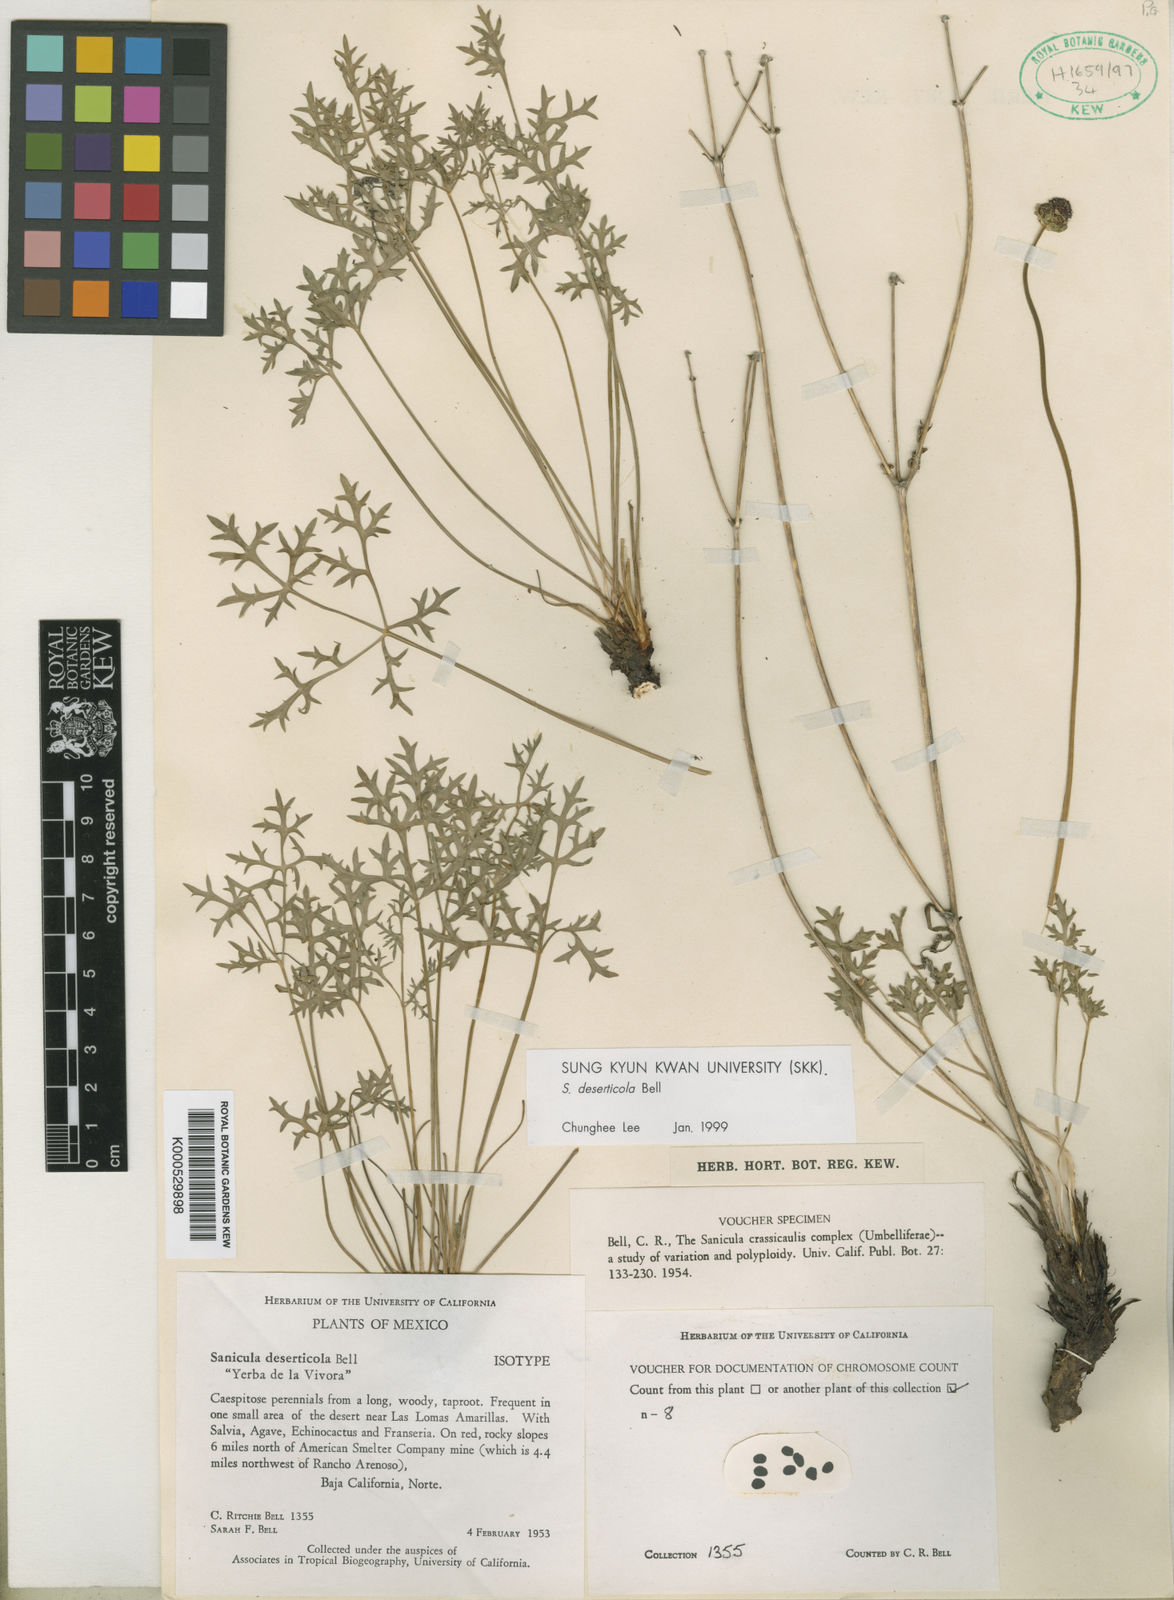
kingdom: Plantae
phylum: Tracheophyta
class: Magnoliopsida
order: Apiales
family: Apiaceae
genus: Sanicula
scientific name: Sanicula bipinnatifida
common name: Shoe-buttons
